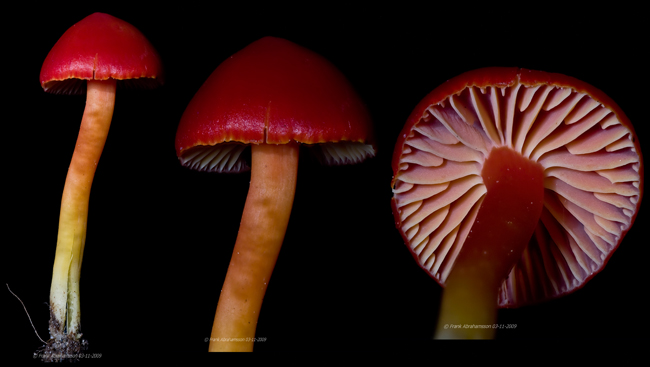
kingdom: Fungi
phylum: Basidiomycota
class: Agaricomycetes
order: Agaricales
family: Hygrophoraceae
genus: Hygrocybe
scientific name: Hygrocybe coccinea
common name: cinnober-vokshat
